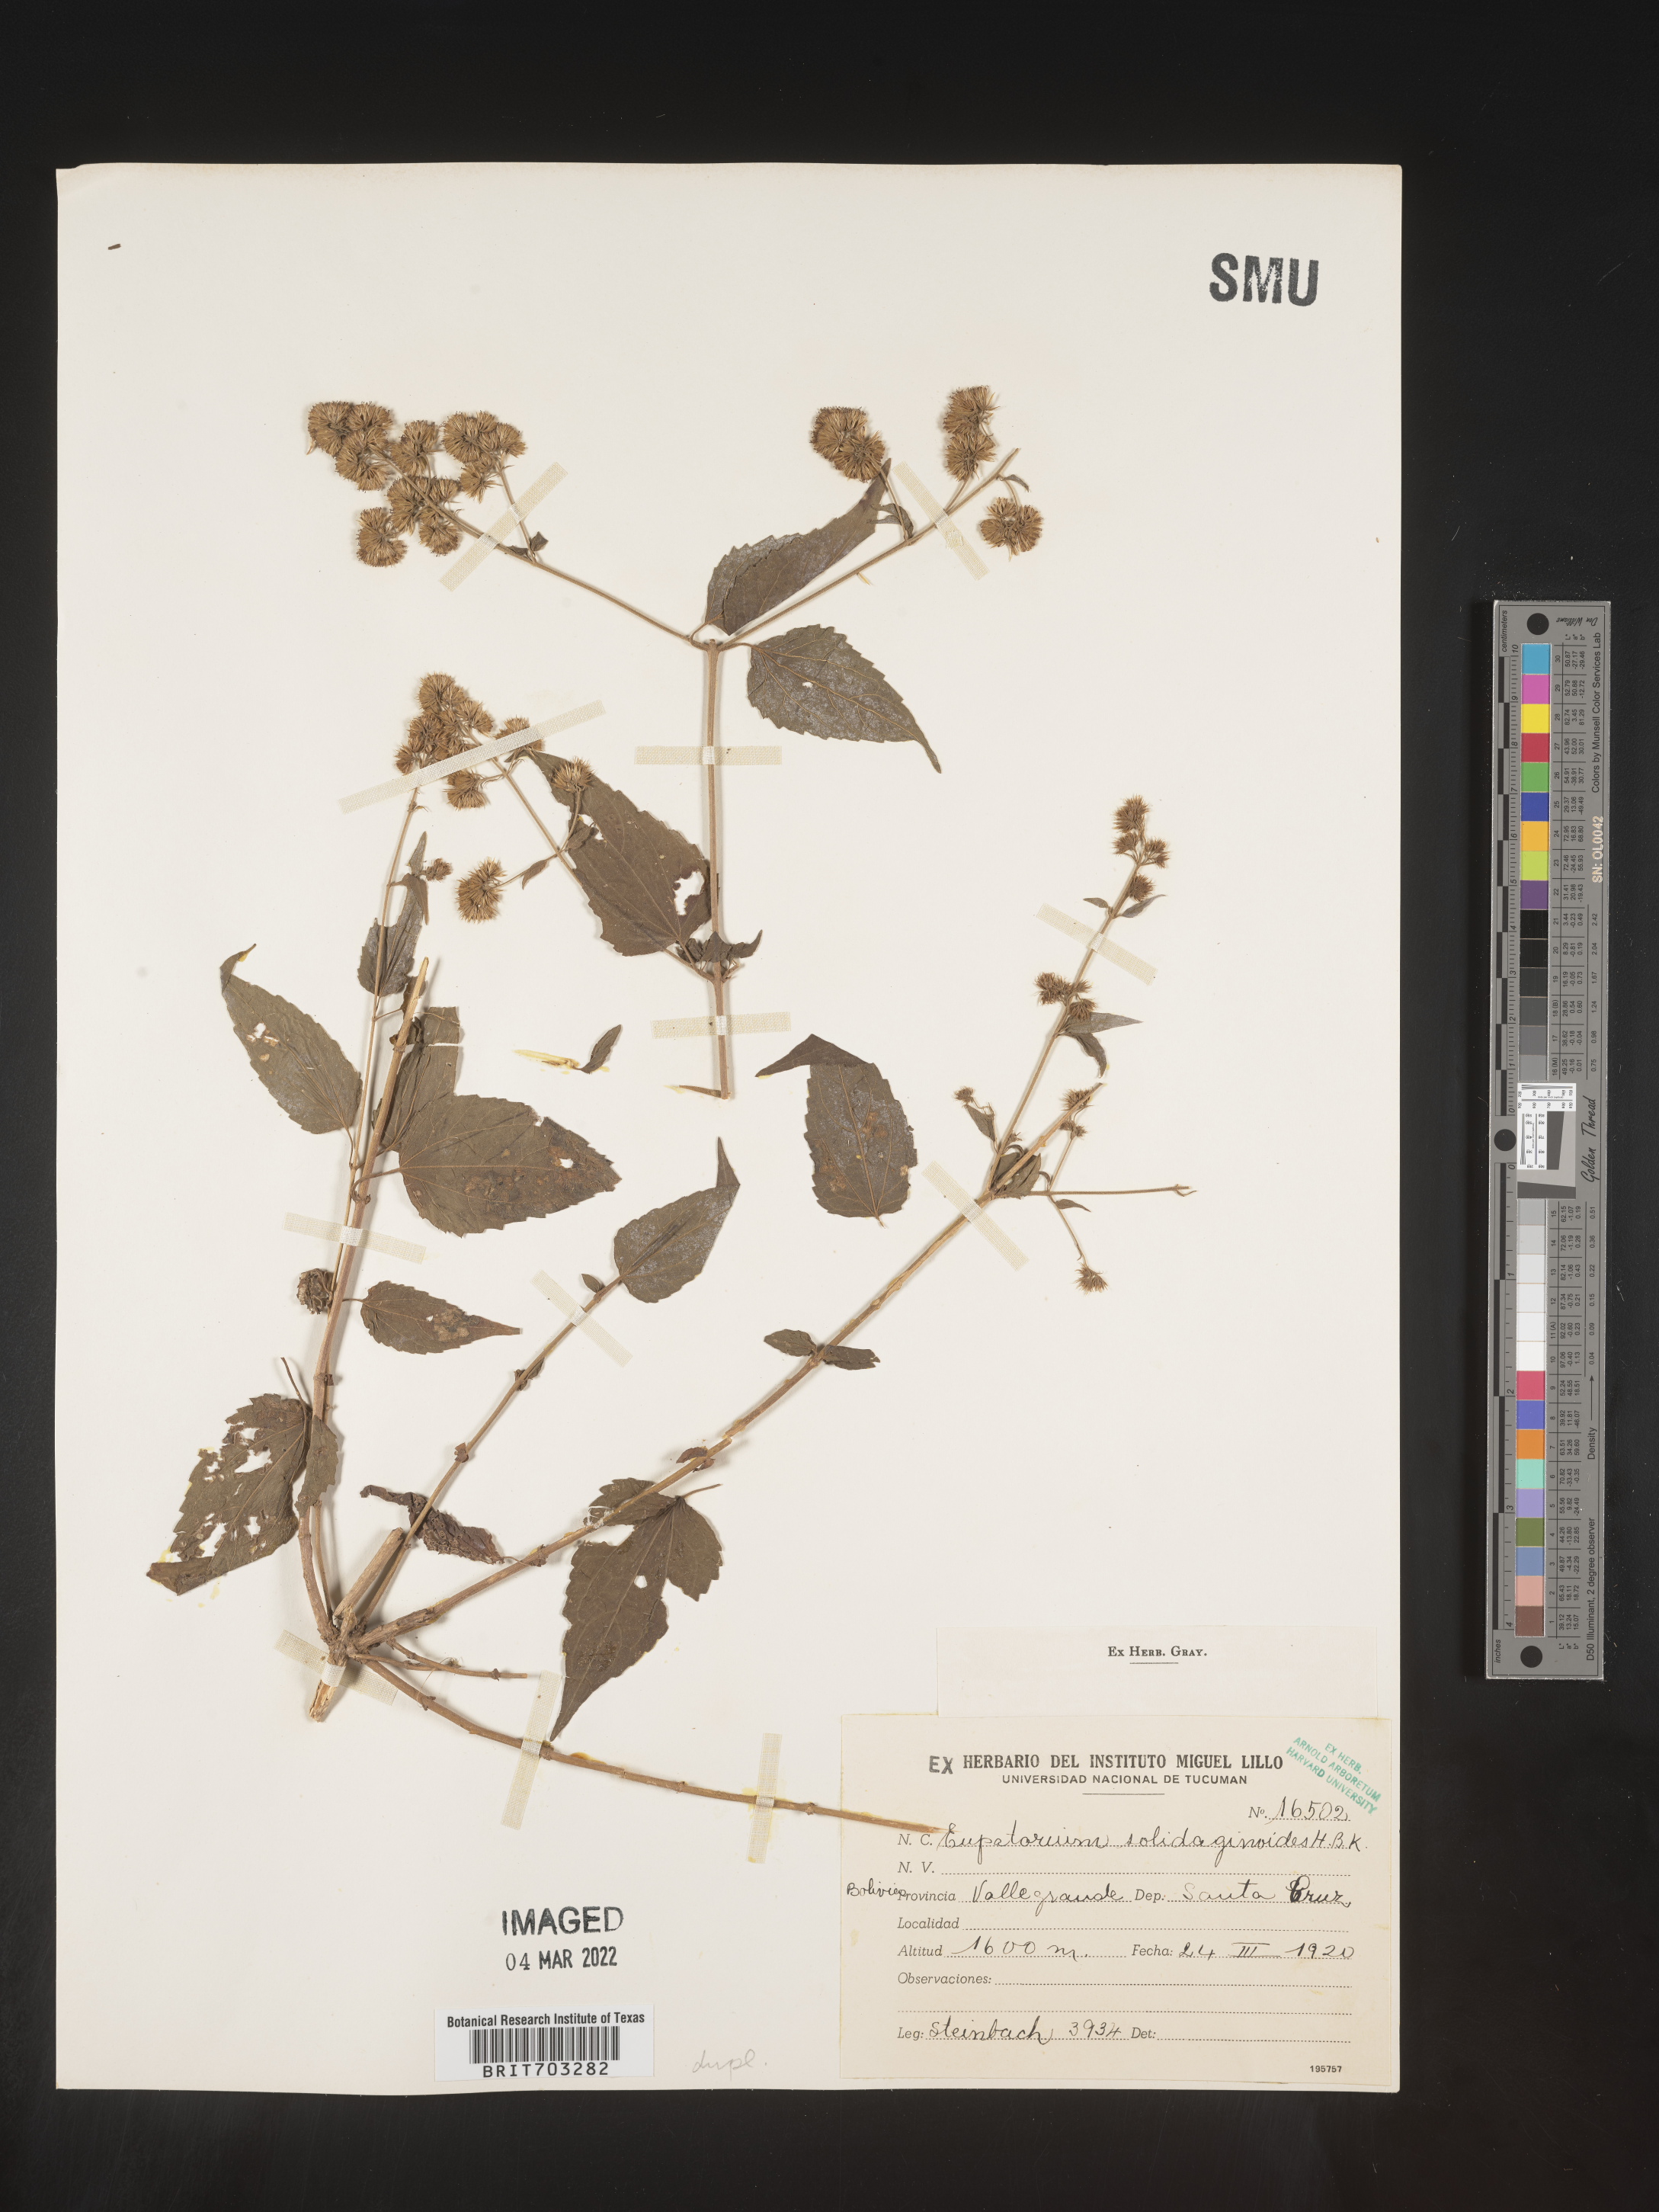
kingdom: Plantae
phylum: Tracheophyta
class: Magnoliopsida
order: Asterales
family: Asteraceae
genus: Eupatorium
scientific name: Eupatorium
